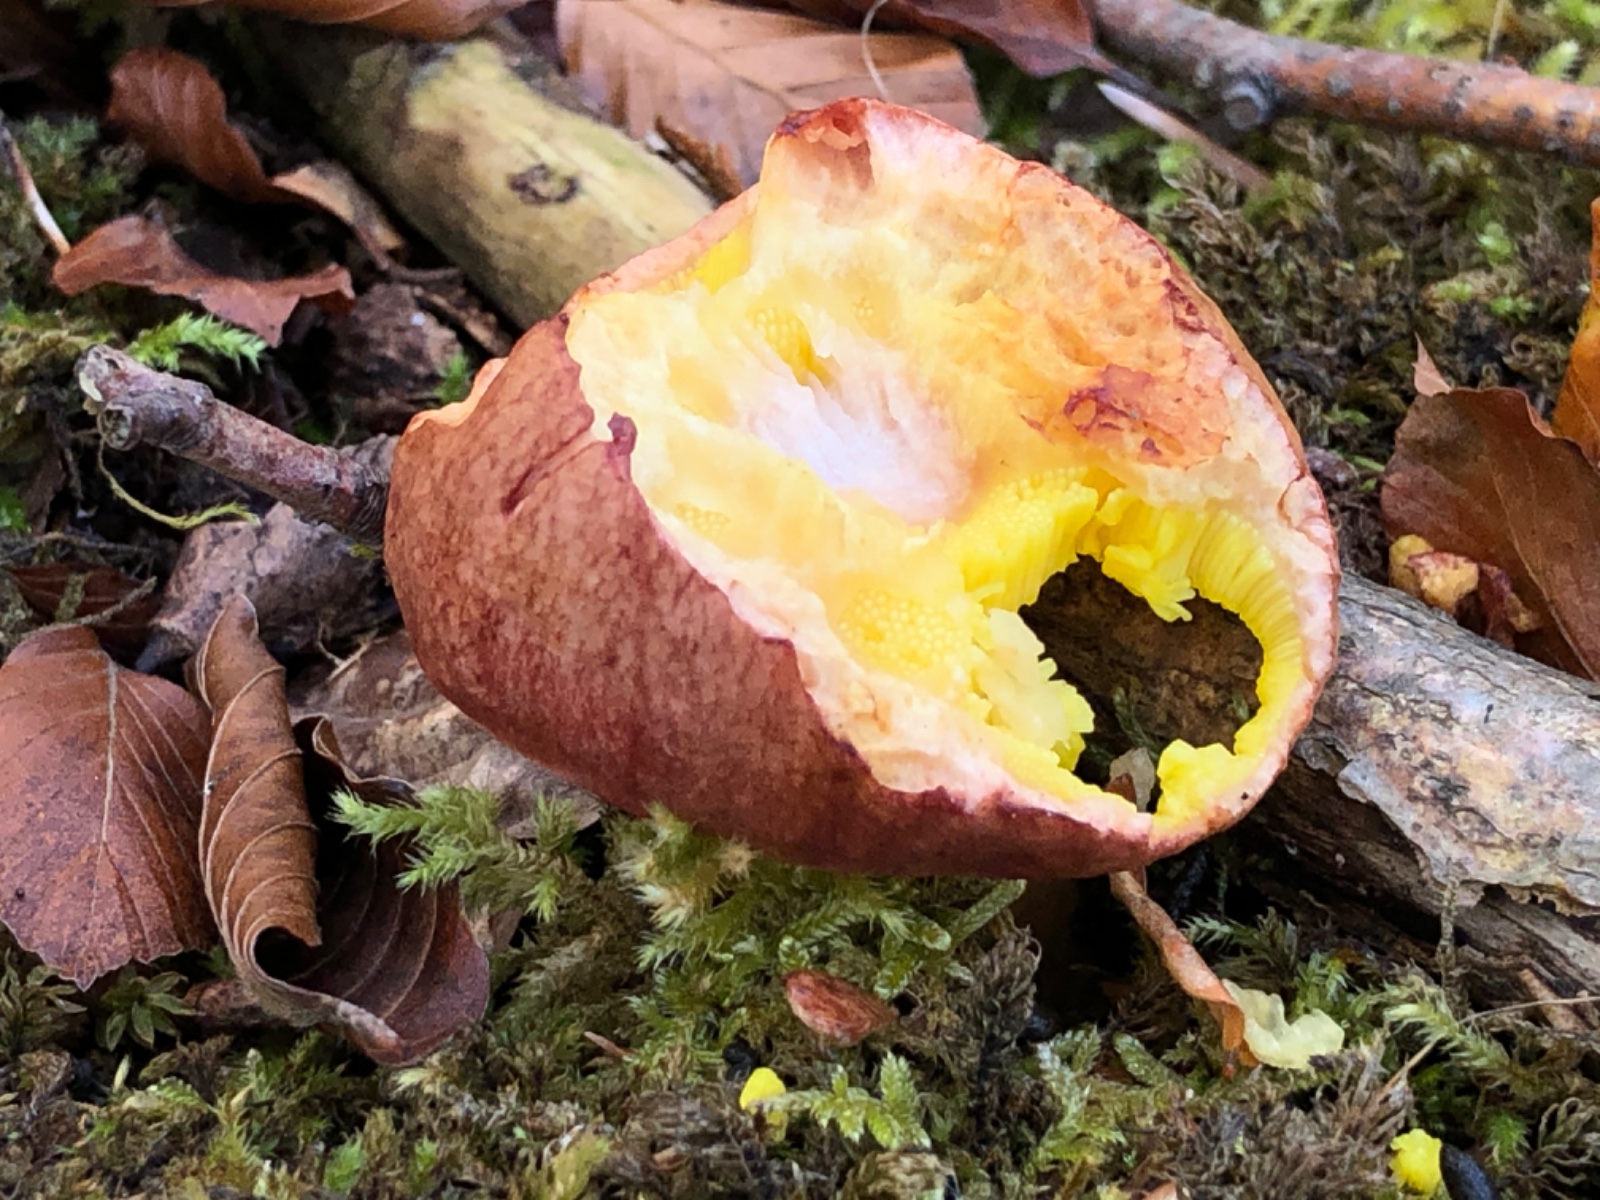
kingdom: Fungi
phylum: Basidiomycota
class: Agaricomycetes
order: Boletales
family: Boletaceae
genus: Aureoboletus
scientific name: Aureoboletus gentilis
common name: guldrørhat
